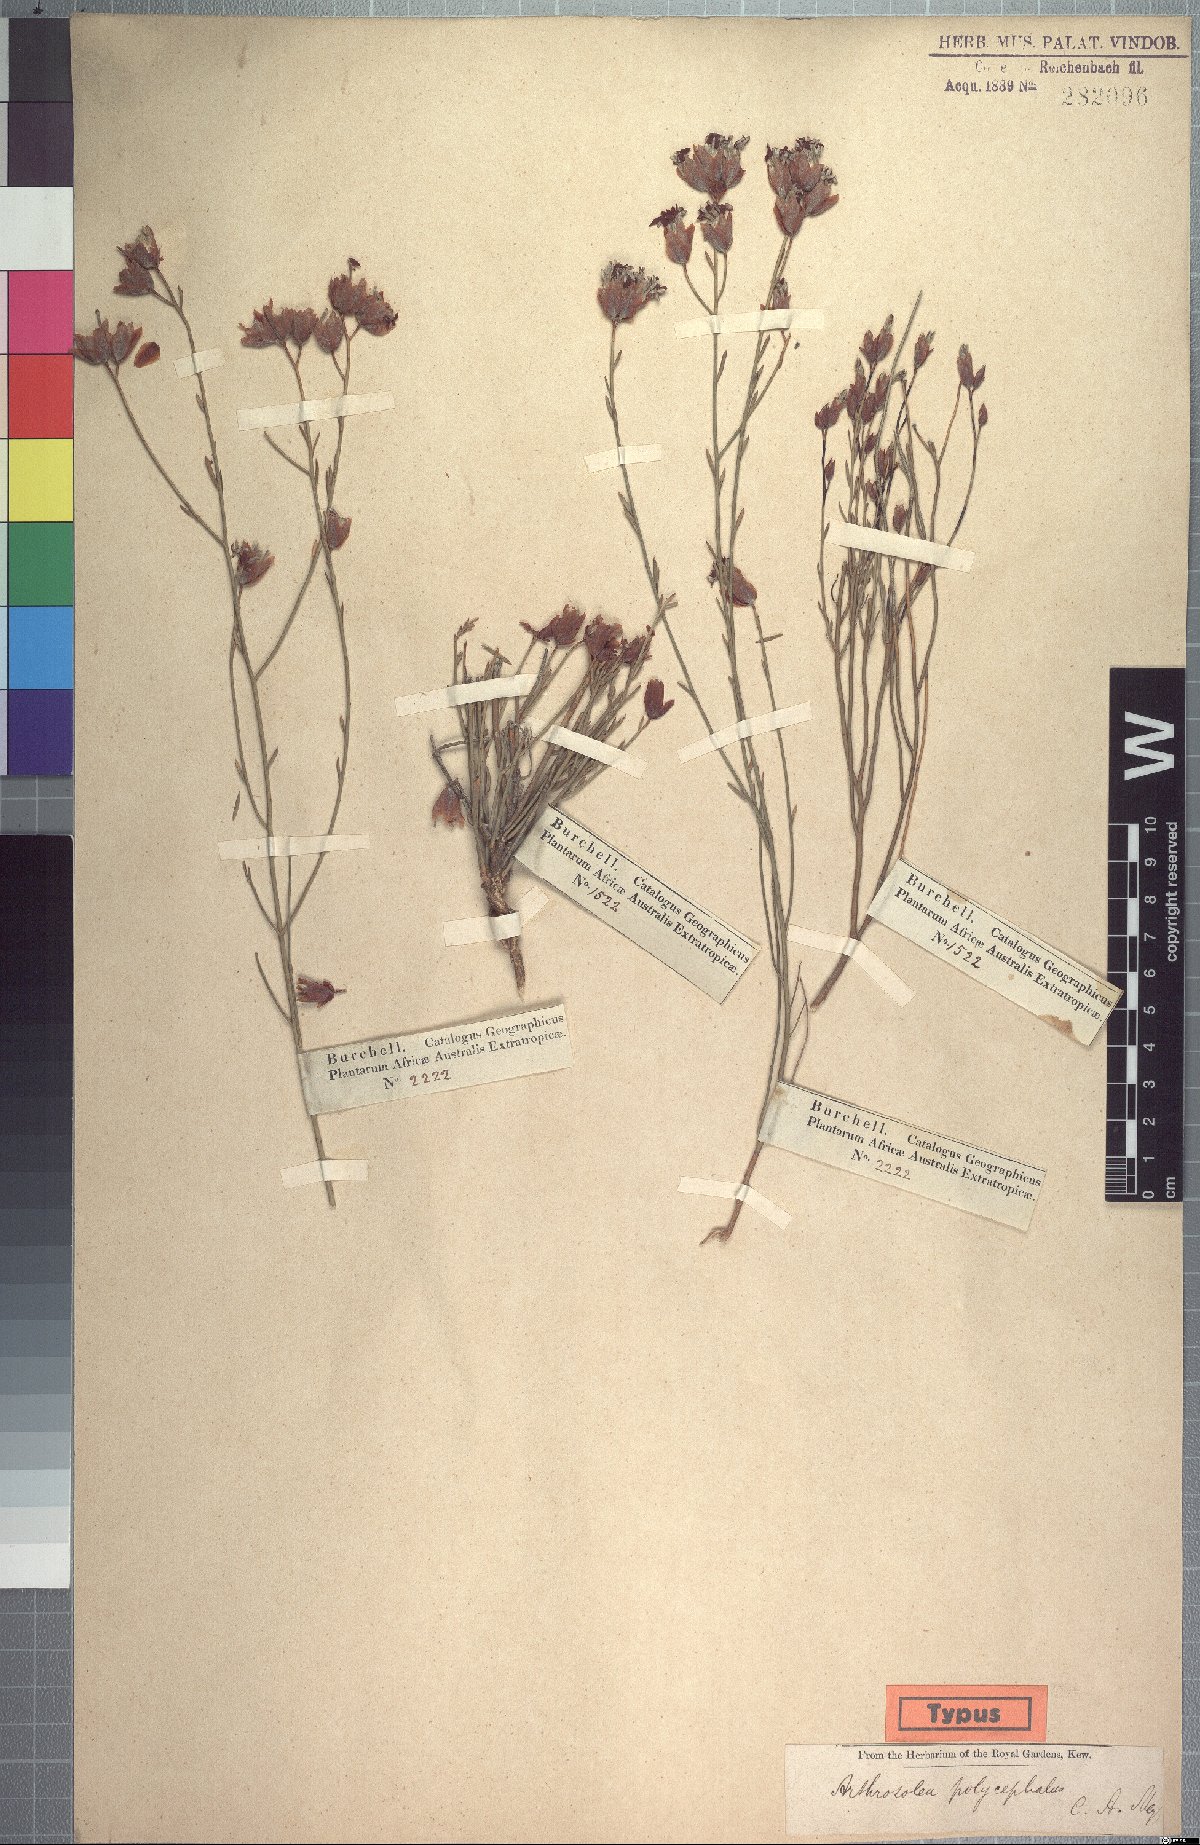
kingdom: Plantae
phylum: Tracheophyta
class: Magnoliopsida
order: Malvales
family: Thymelaeaceae
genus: Gnidia
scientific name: Gnidia polycephala
